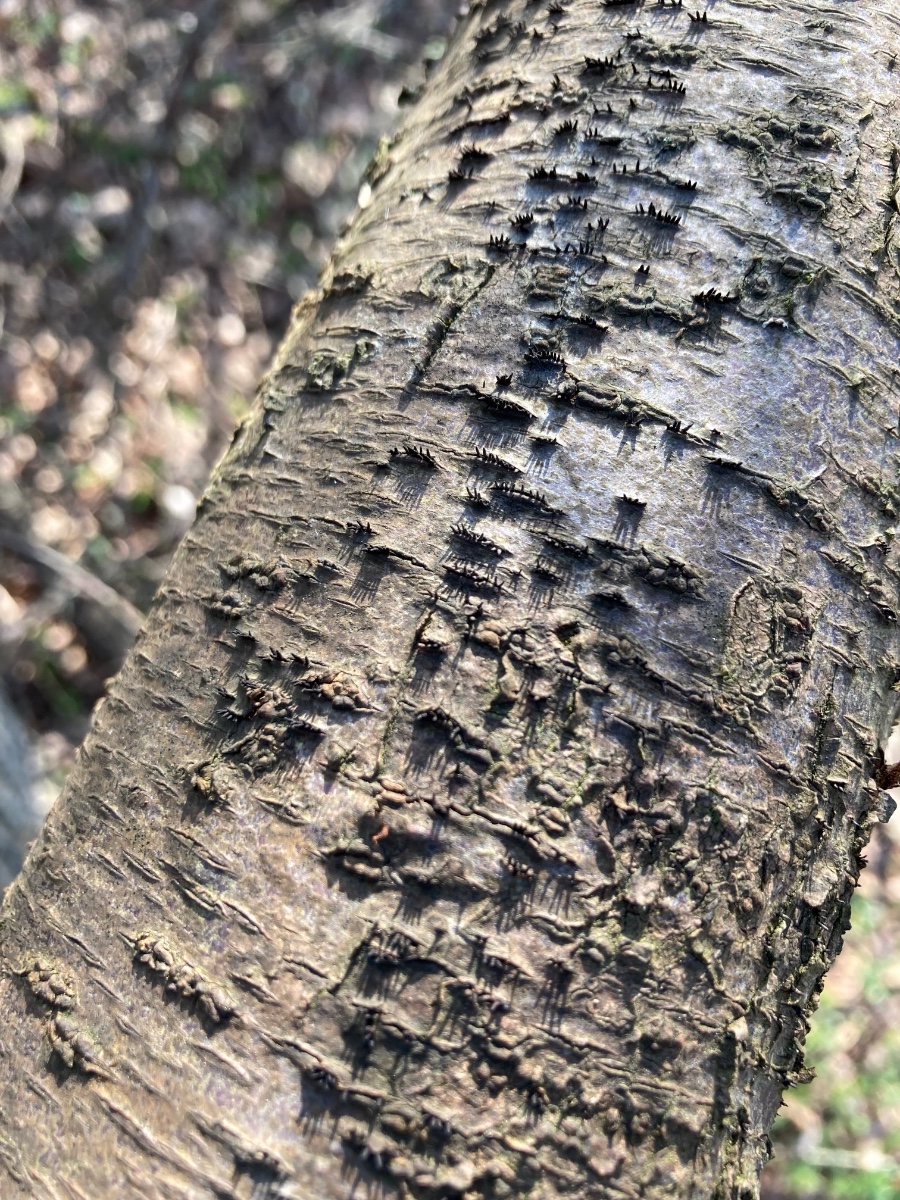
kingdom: Fungi
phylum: Ascomycota
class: Leotiomycetes
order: Helotiales
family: Dermateaceae
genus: Dermea
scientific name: Dermea prunastri
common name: blomme-klyngeskive
